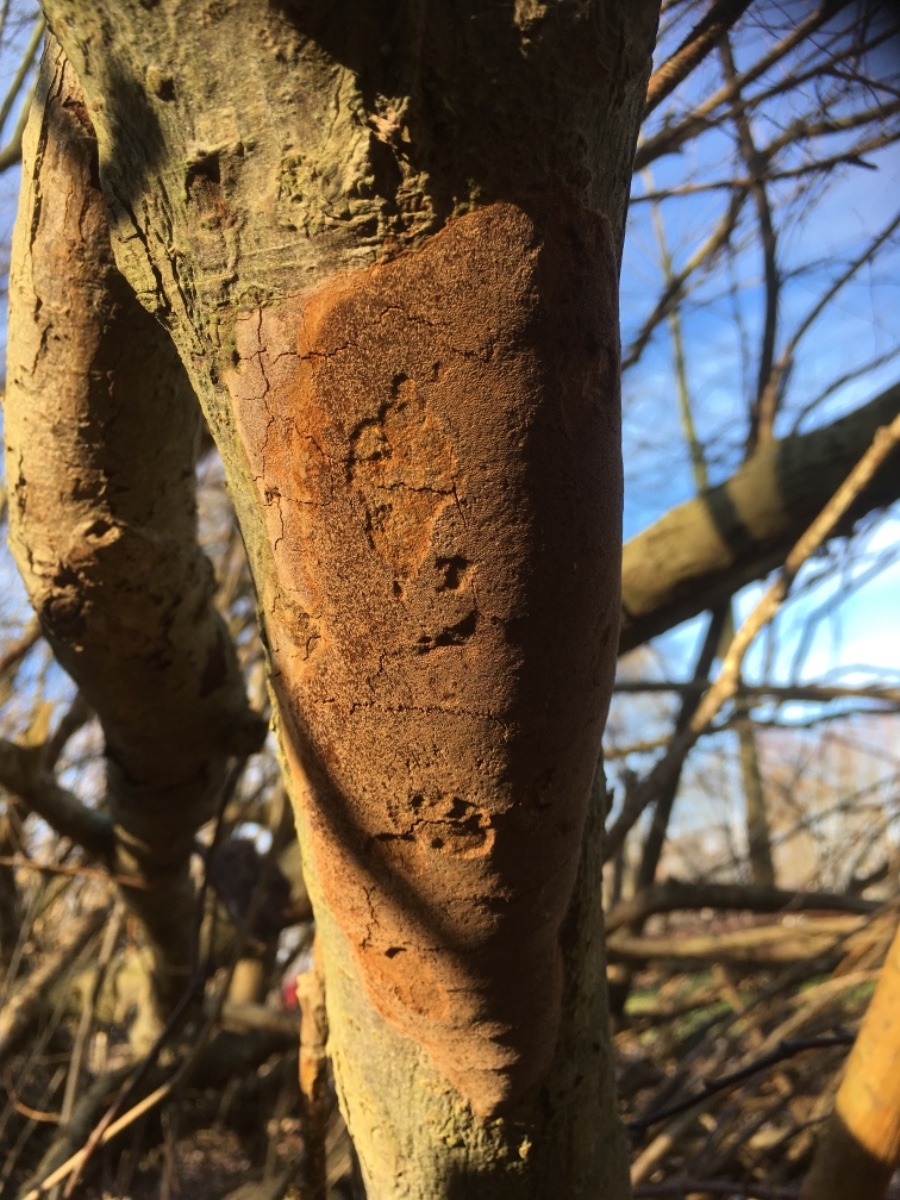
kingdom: Fungi
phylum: Basidiomycota
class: Agaricomycetes
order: Hymenochaetales
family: Hymenochaetaceae
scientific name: Hymenochaetaceae
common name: børstesvampfamilien
